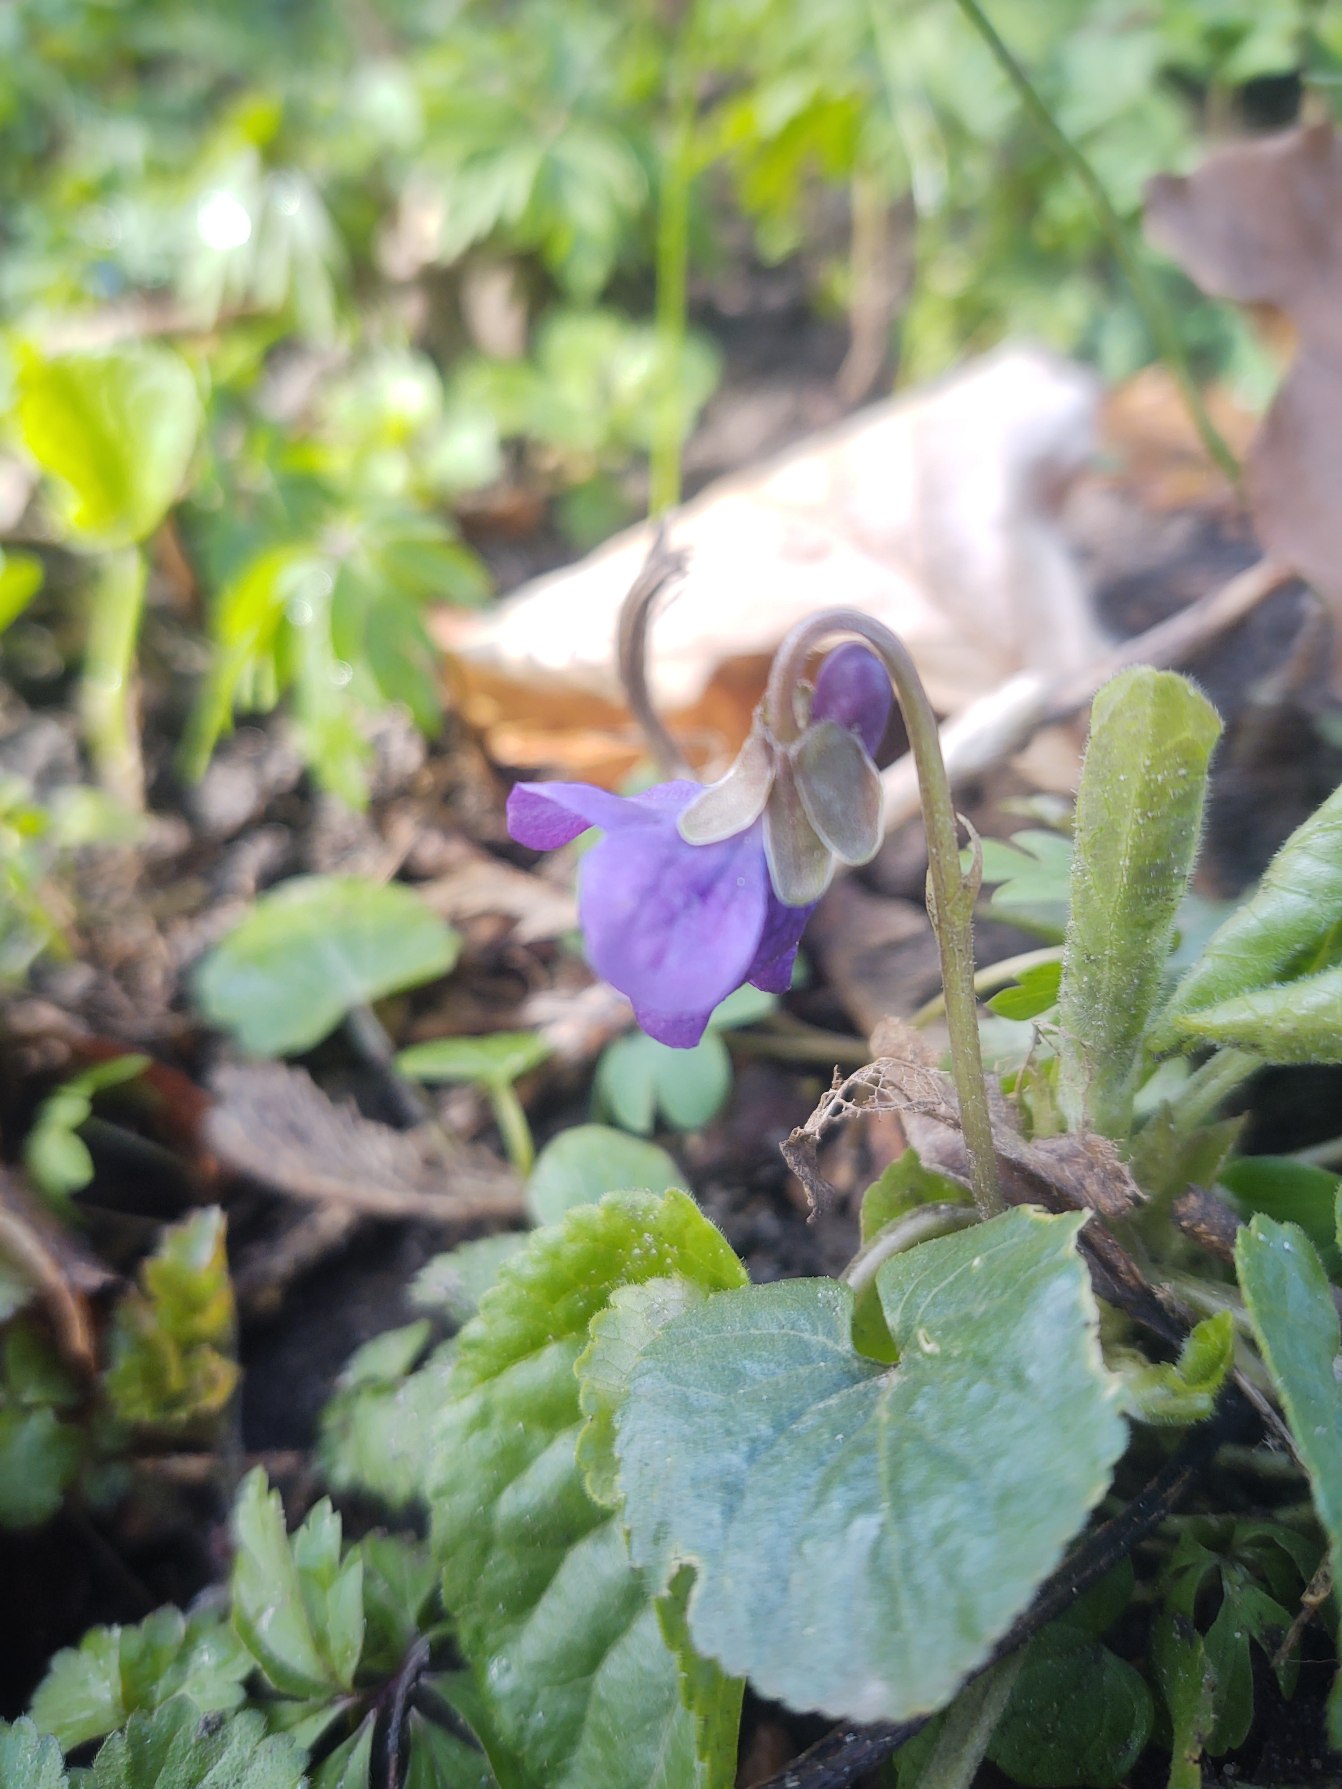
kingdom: Plantae
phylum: Tracheophyta
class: Magnoliopsida
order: Malpighiales
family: Violaceae
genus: Viola
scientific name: Viola odorata
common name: Marts-viol
